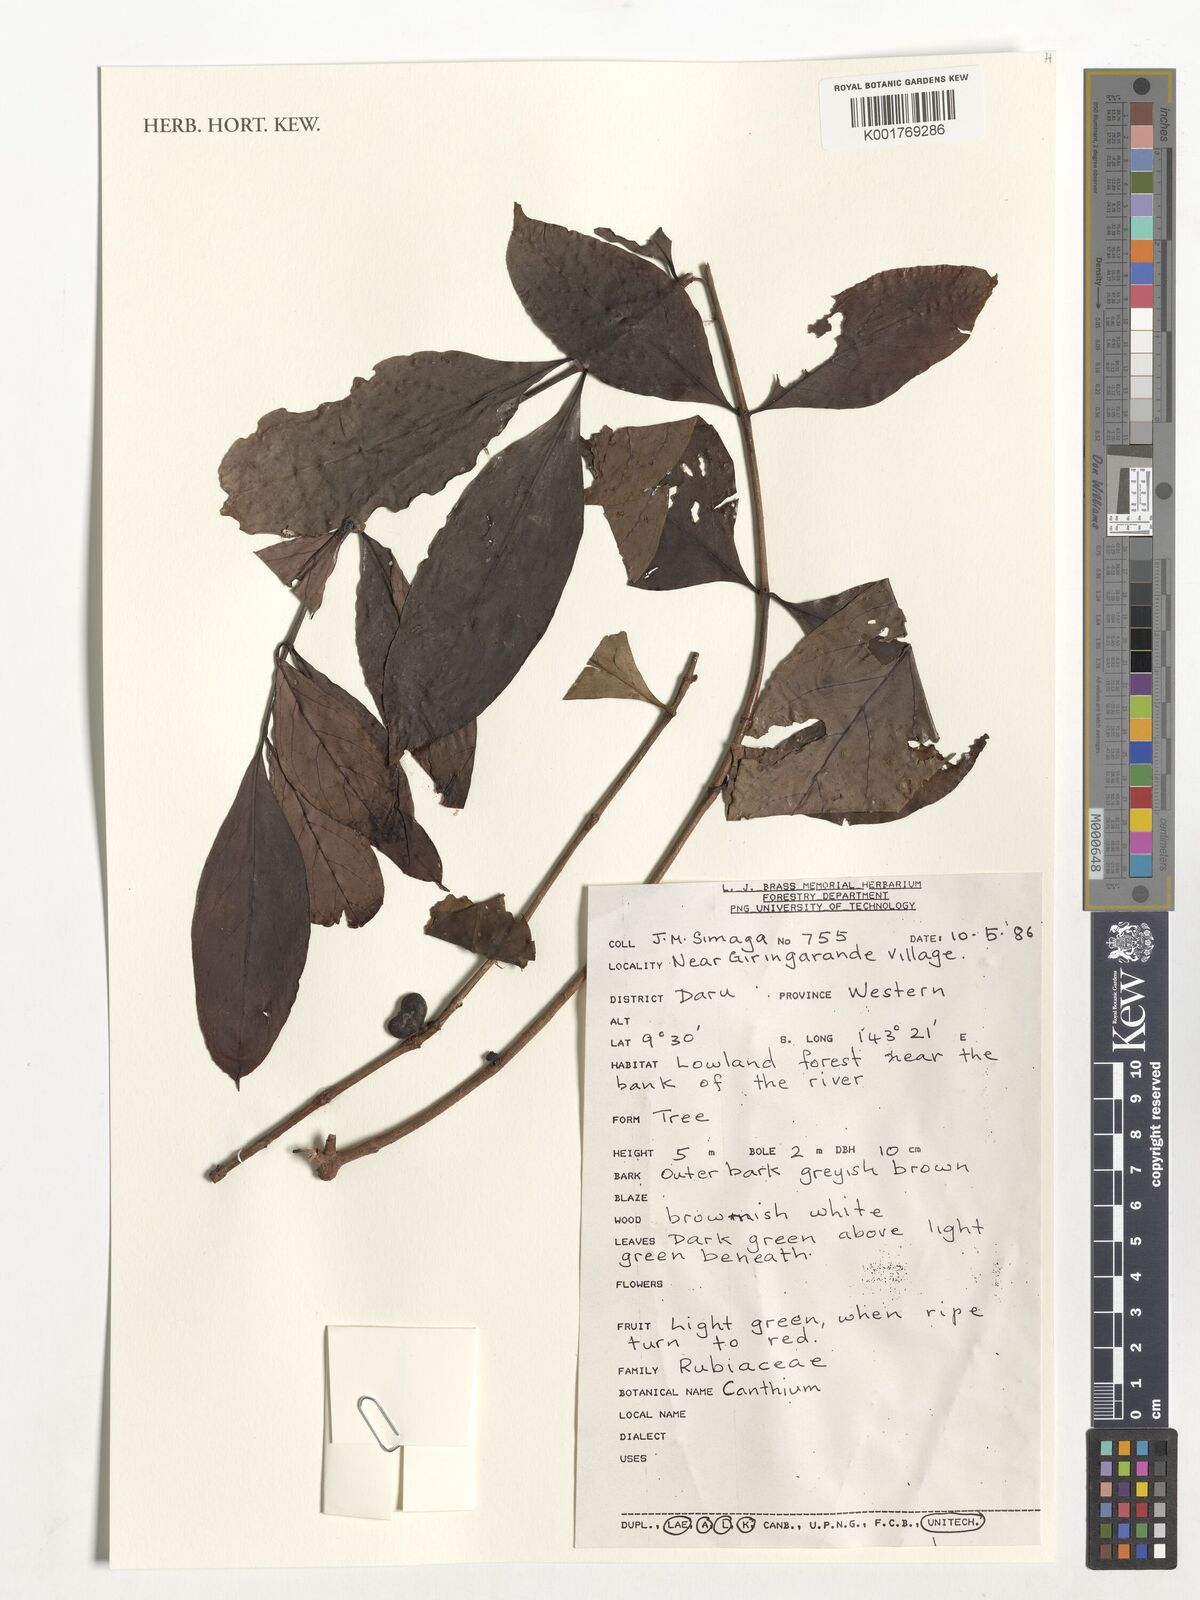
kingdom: Plantae
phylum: Tracheophyta
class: Magnoliopsida
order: Gentianales
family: Rubiaceae
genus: Canthium
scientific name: Canthium
